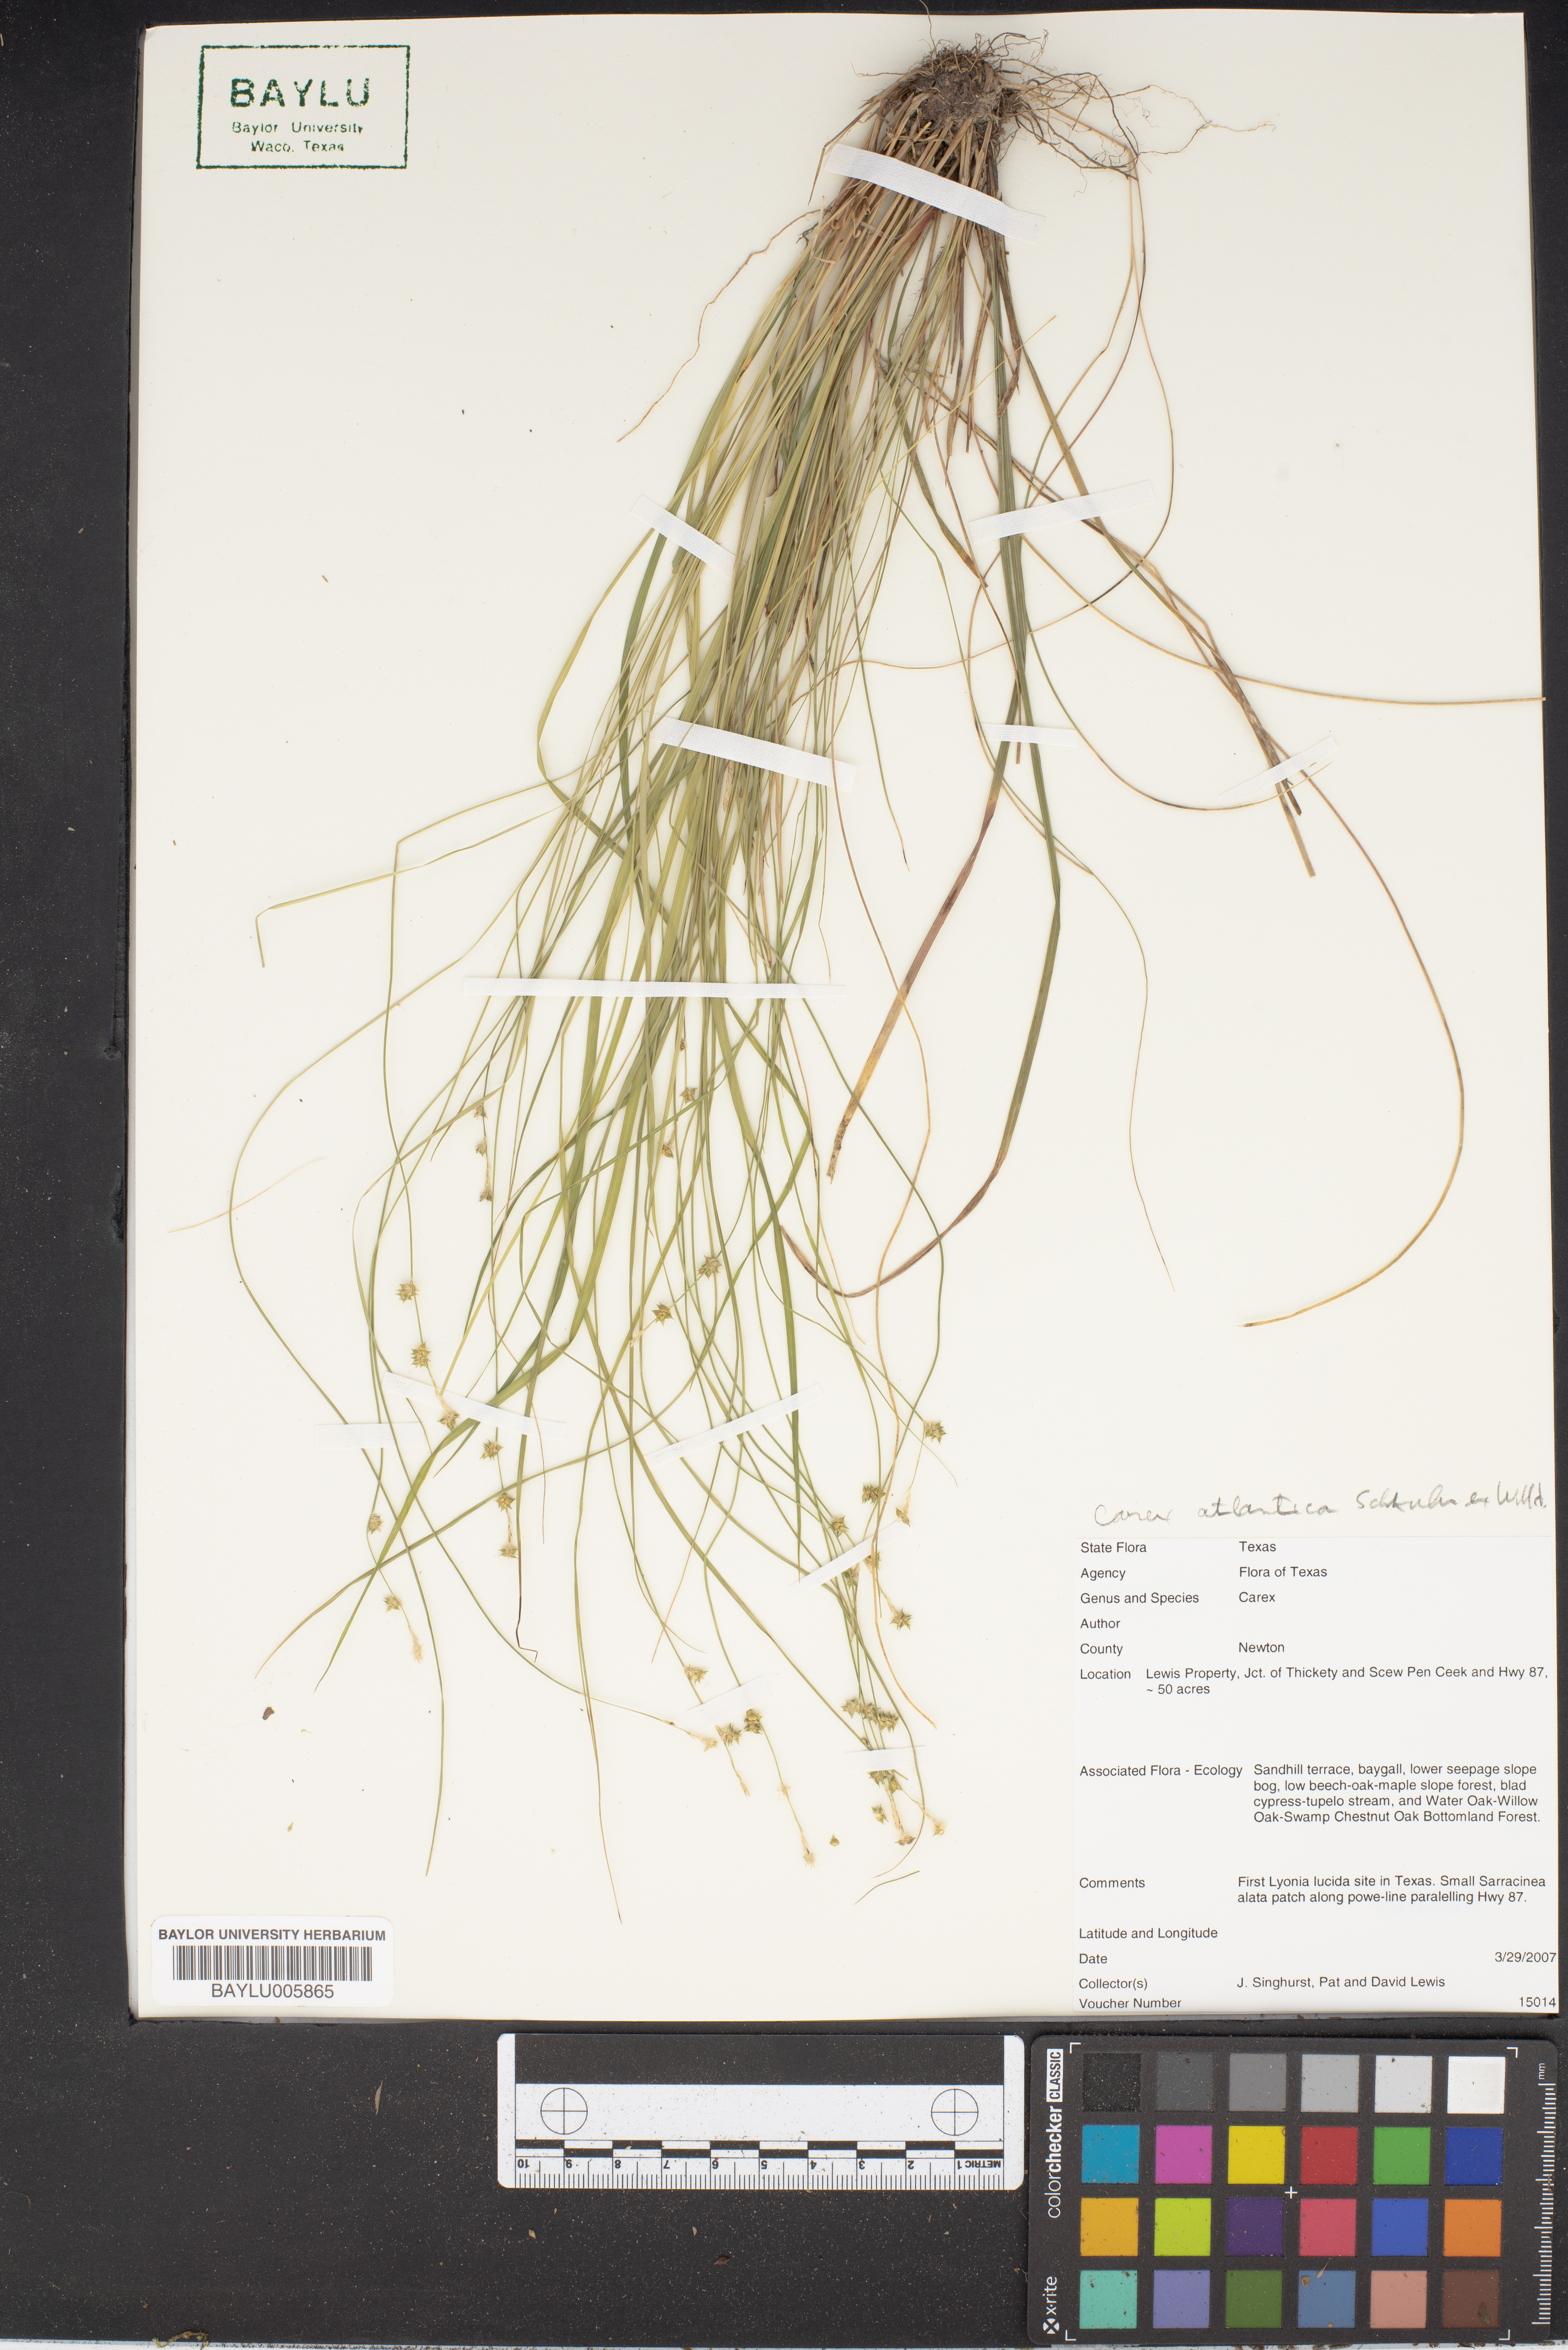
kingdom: Plantae
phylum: Tracheophyta
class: Liliopsida
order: Poales
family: Cyperaceae
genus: Carex
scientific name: Carex atlantica
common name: Atlantic sedge
